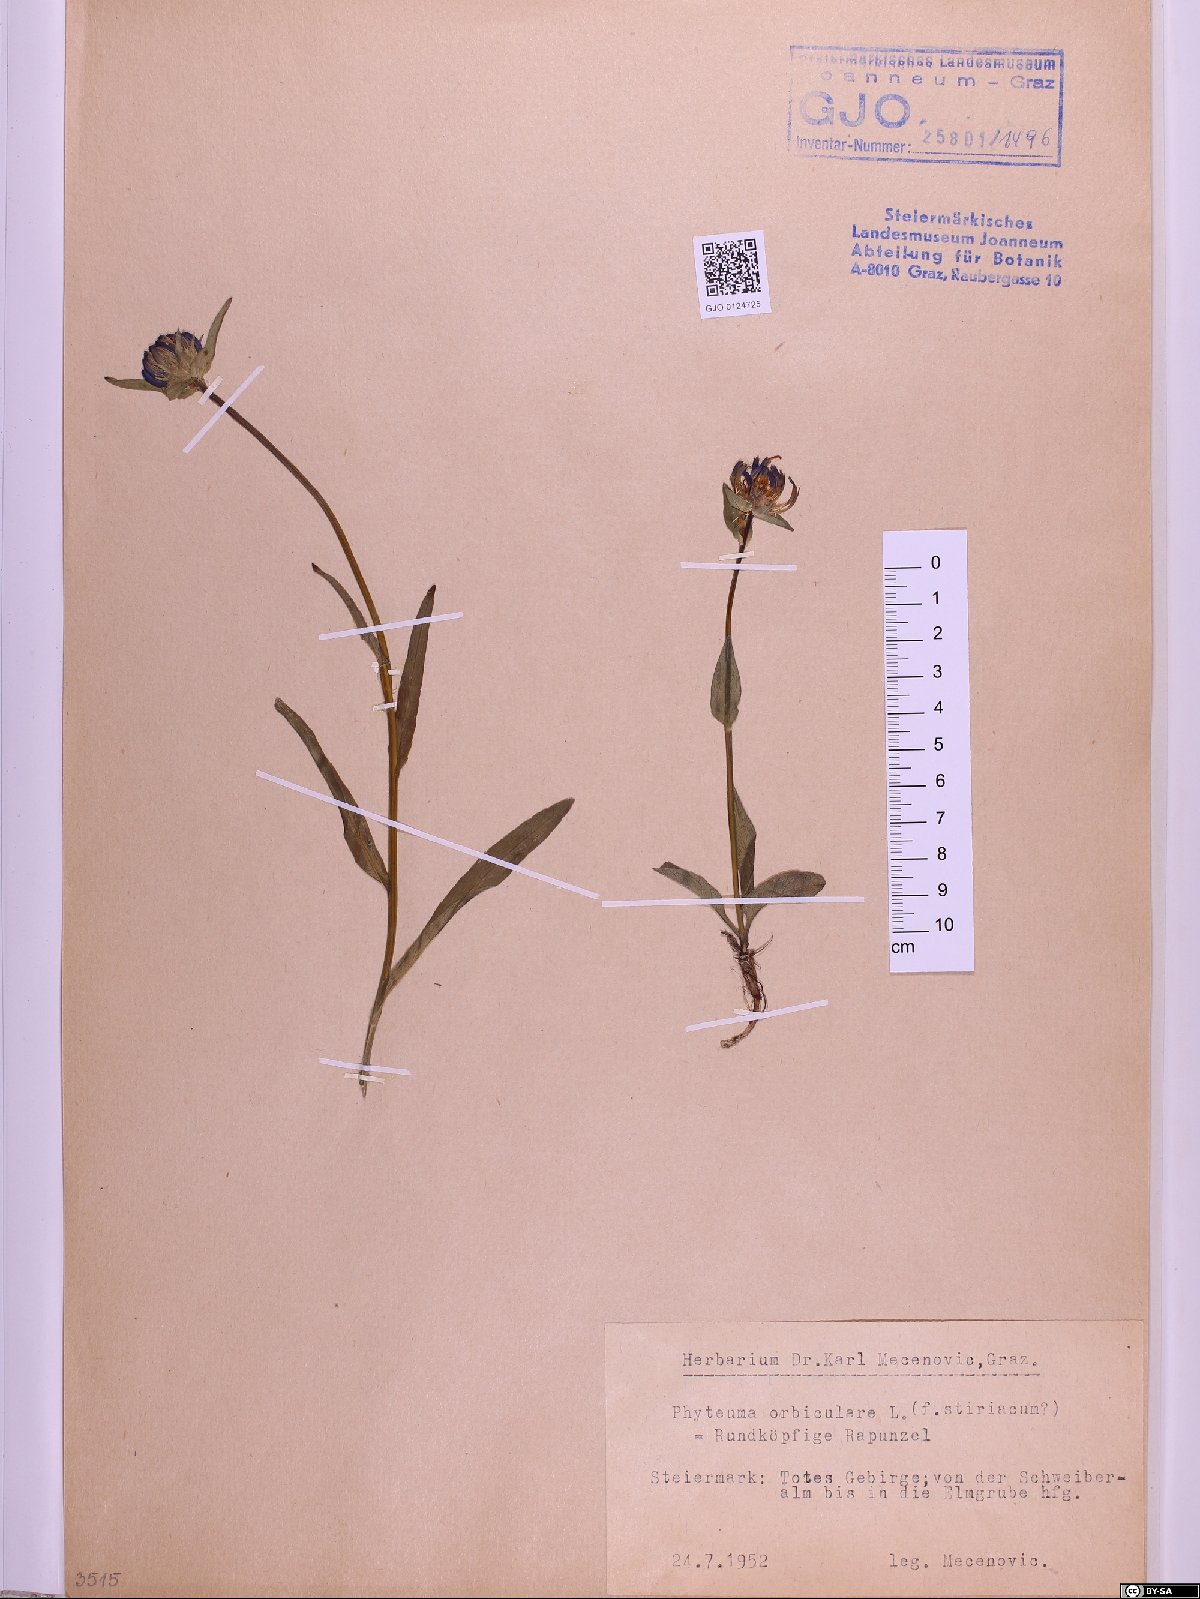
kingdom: Plantae
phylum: Tracheophyta
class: Magnoliopsida
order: Asterales
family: Campanulaceae
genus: Phyteuma
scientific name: Phyteuma orbiculare
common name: Round-headed rampion
